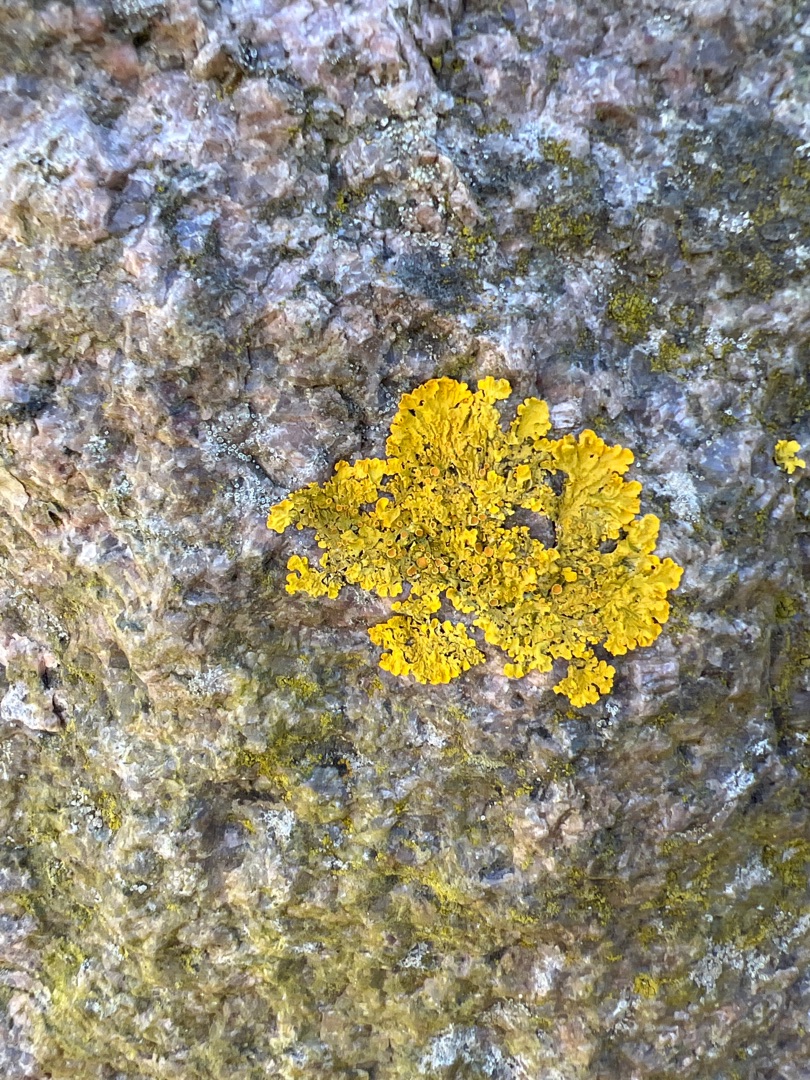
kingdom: Fungi
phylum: Ascomycota
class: Lecanoromycetes
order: Teloschistales
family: Teloschistaceae
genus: Xanthoria
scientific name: Xanthoria parietina
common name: Almindelig væggelav
